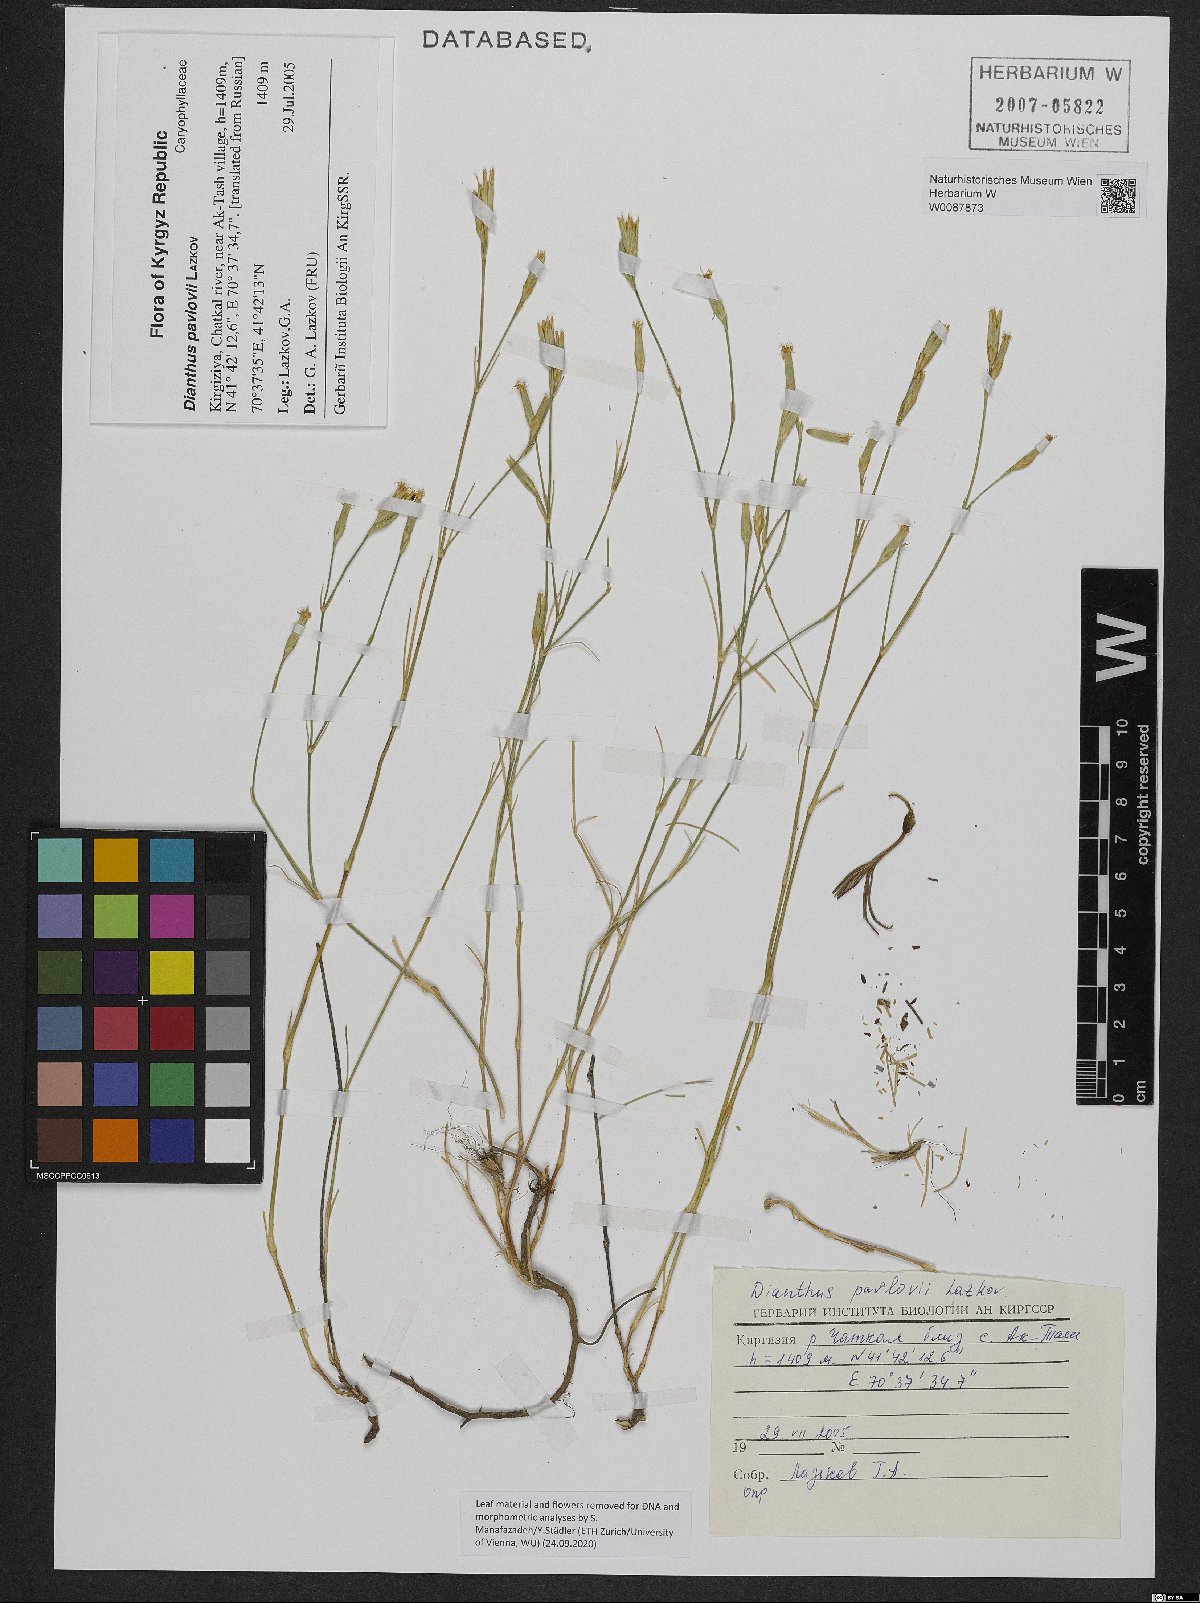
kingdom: Plantae
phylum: Tracheophyta
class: Magnoliopsida
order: Caryophyllales
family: Caryophyllaceae
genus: Dianthus
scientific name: Dianthus pavlovii
